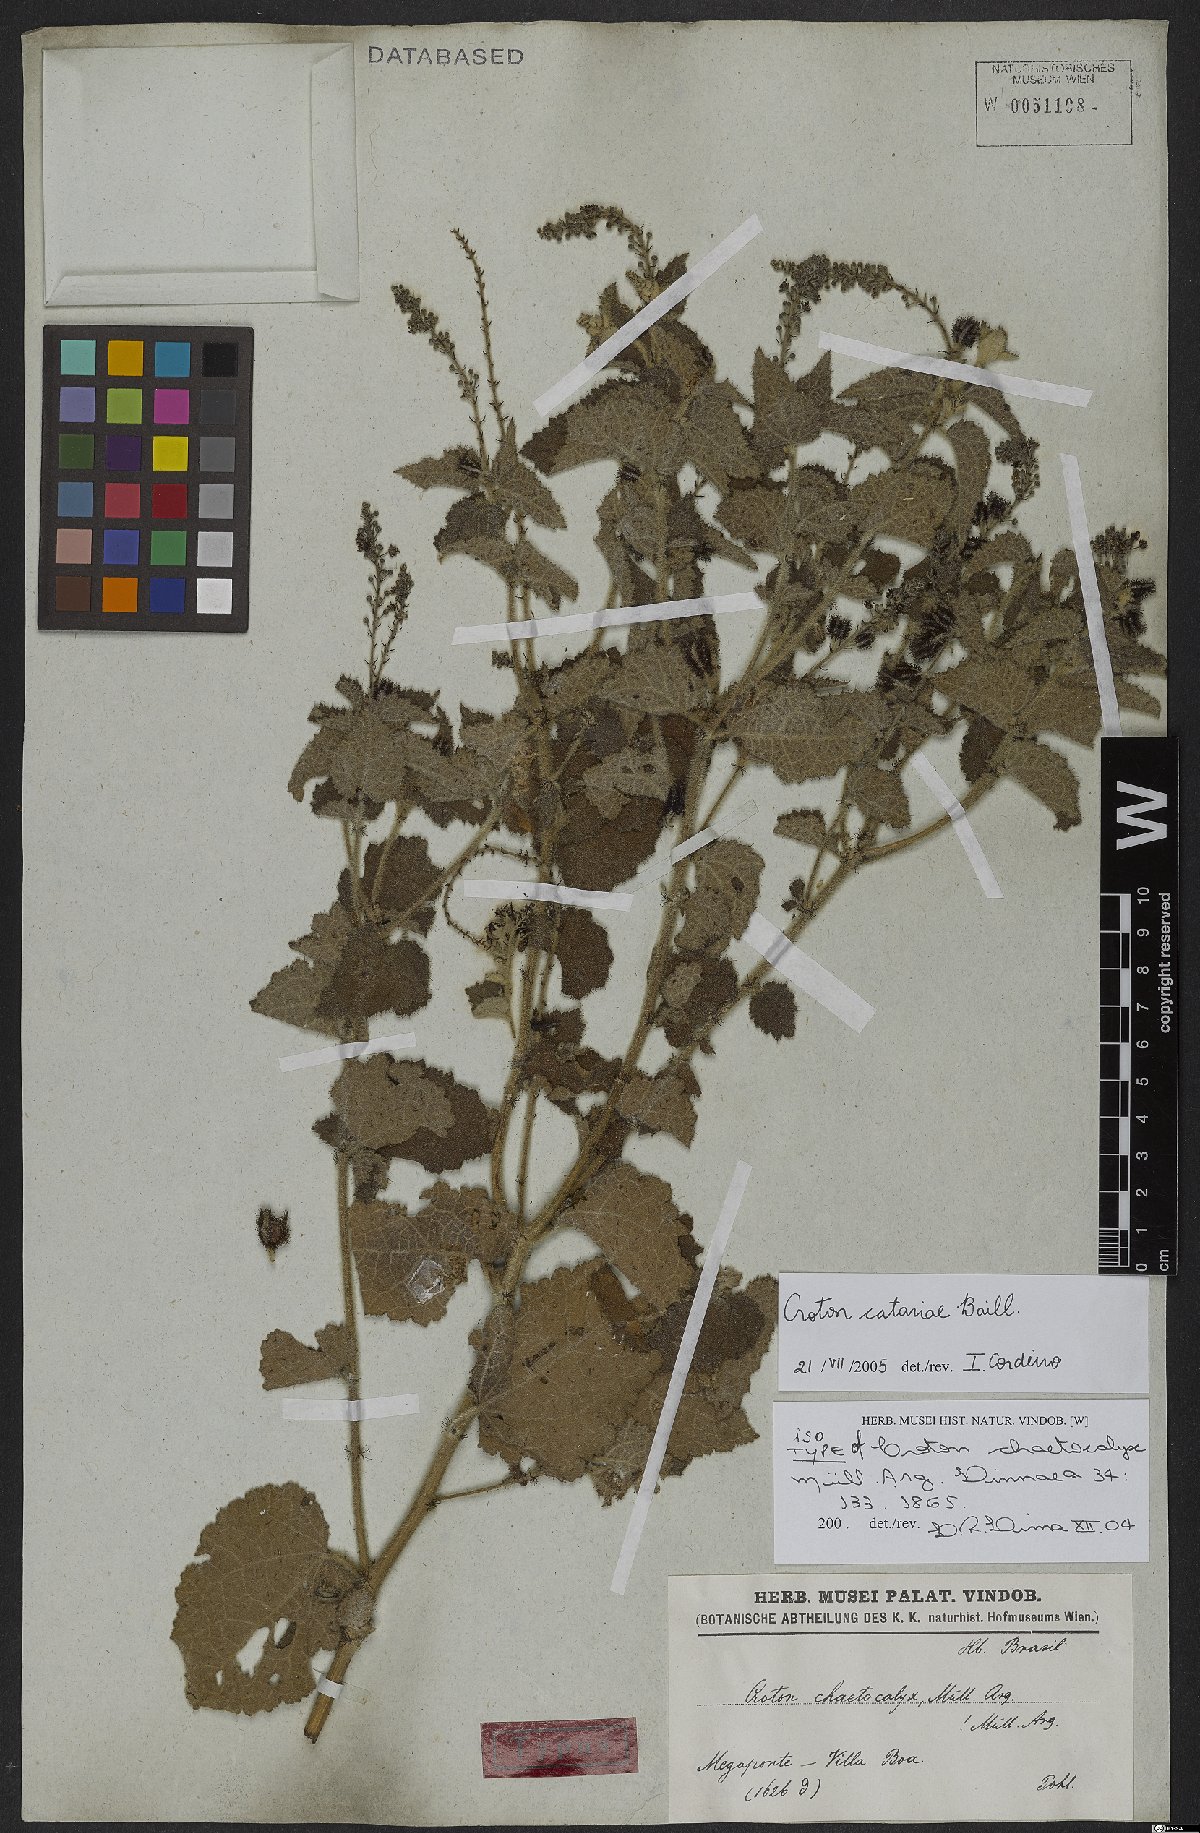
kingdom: Plantae
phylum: Tracheophyta
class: Magnoliopsida
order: Malpighiales
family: Euphorbiaceae
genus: Croton
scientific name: Croton catariae
